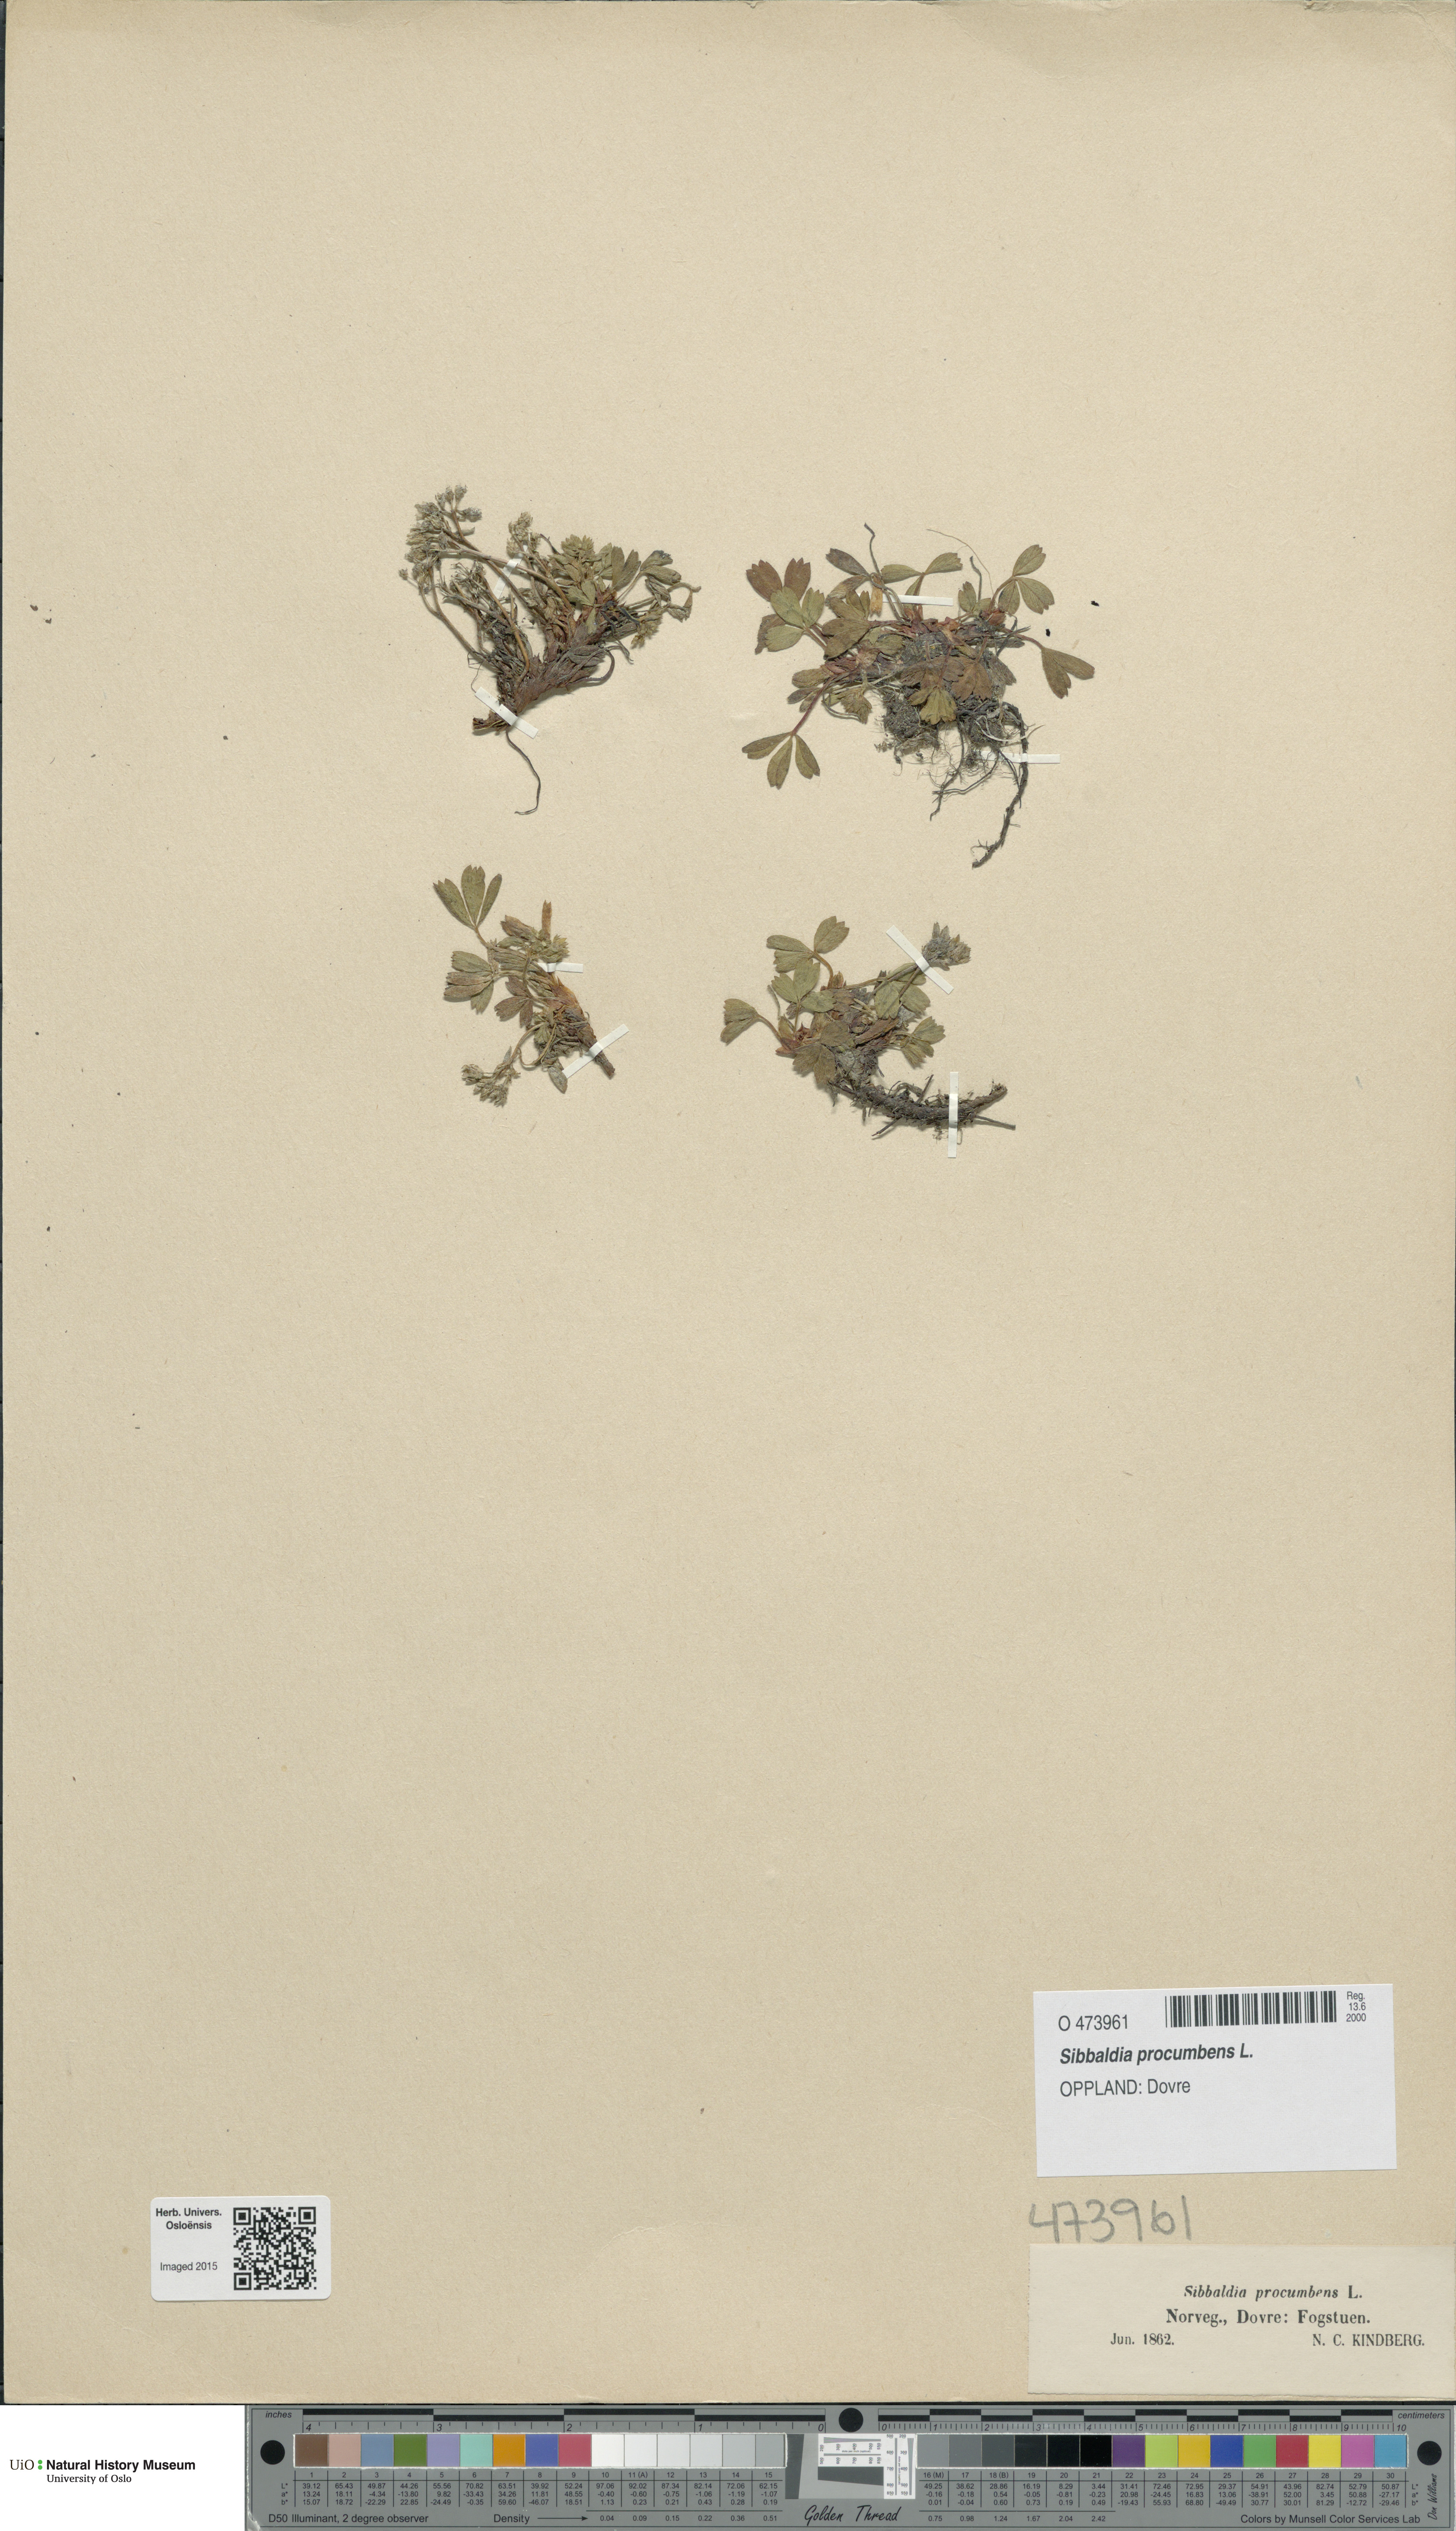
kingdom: Plantae
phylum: Tracheophyta
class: Magnoliopsida
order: Rosales
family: Rosaceae
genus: Sibbaldia
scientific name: Sibbaldia procumbens
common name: Creeping sibbaldia
